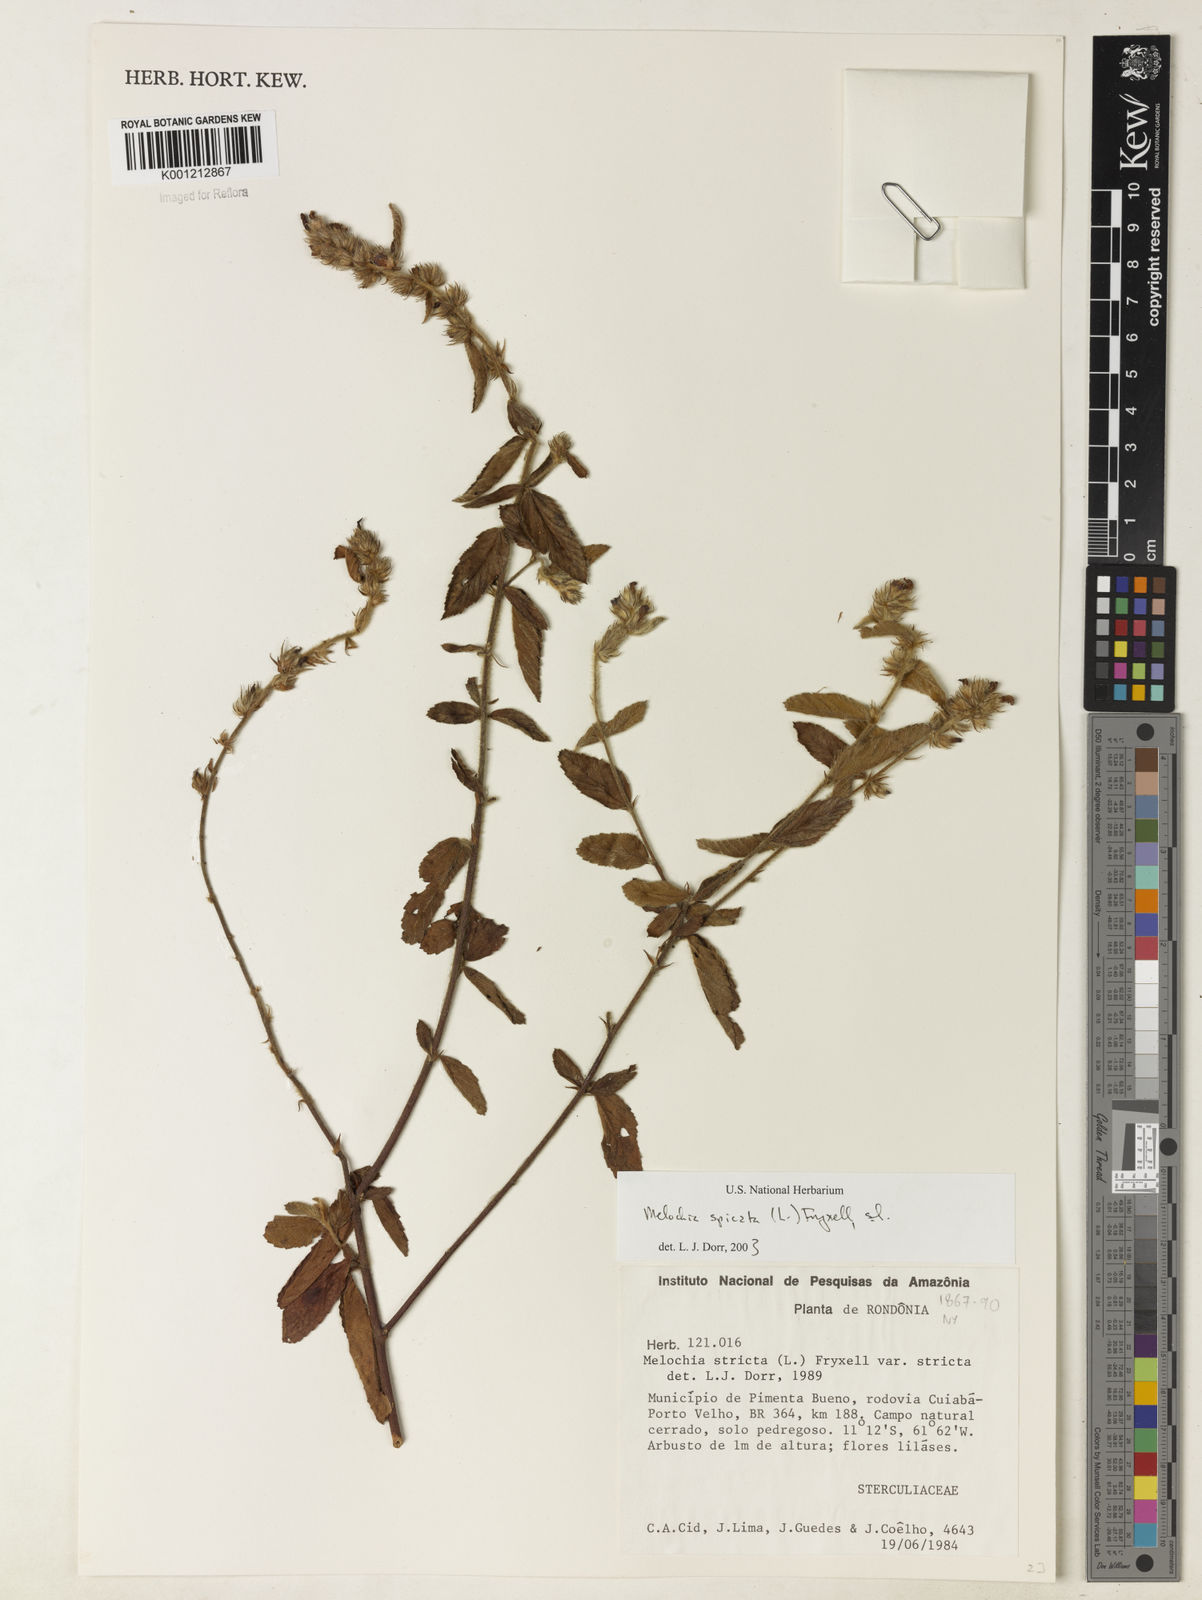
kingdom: Plantae
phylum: Tracheophyta
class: Magnoliopsida
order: Malvales
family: Malvaceae
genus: Melochia
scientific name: Melochia spicata
